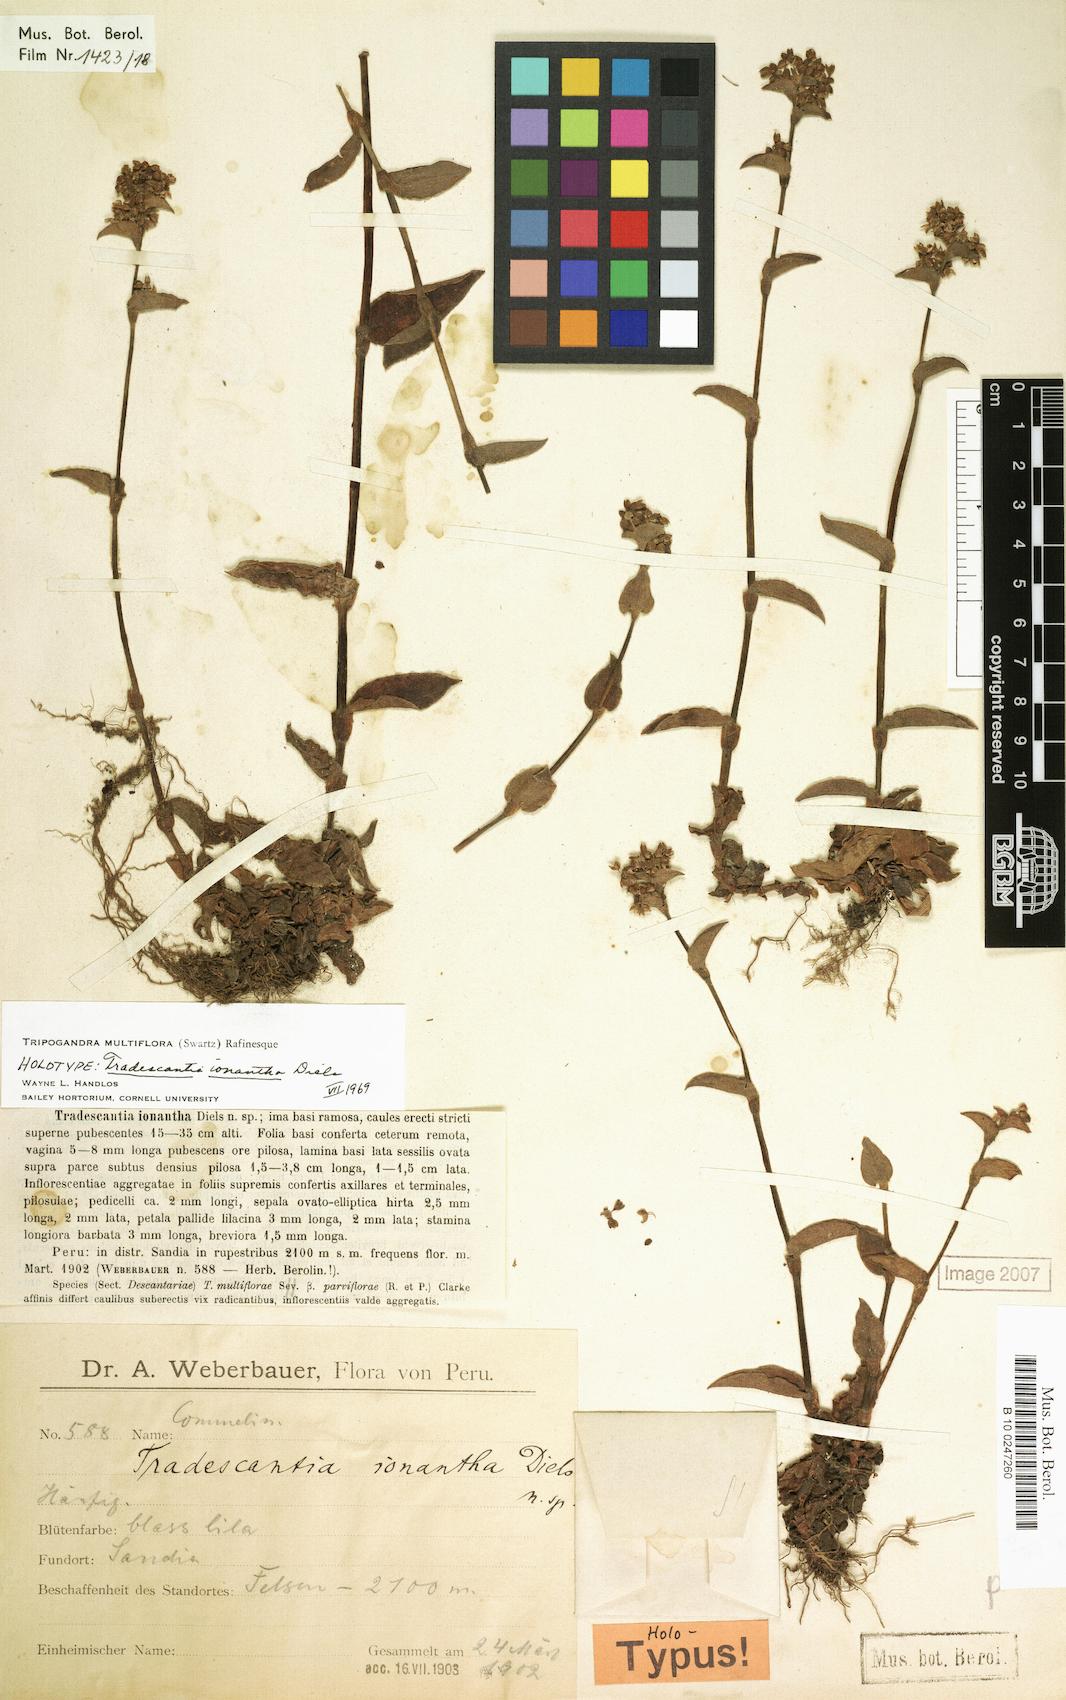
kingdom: Plantae
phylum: Tracheophyta
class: Liliopsida
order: Commelinales
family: Commelinaceae
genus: Callisia
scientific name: Callisia procumbens
